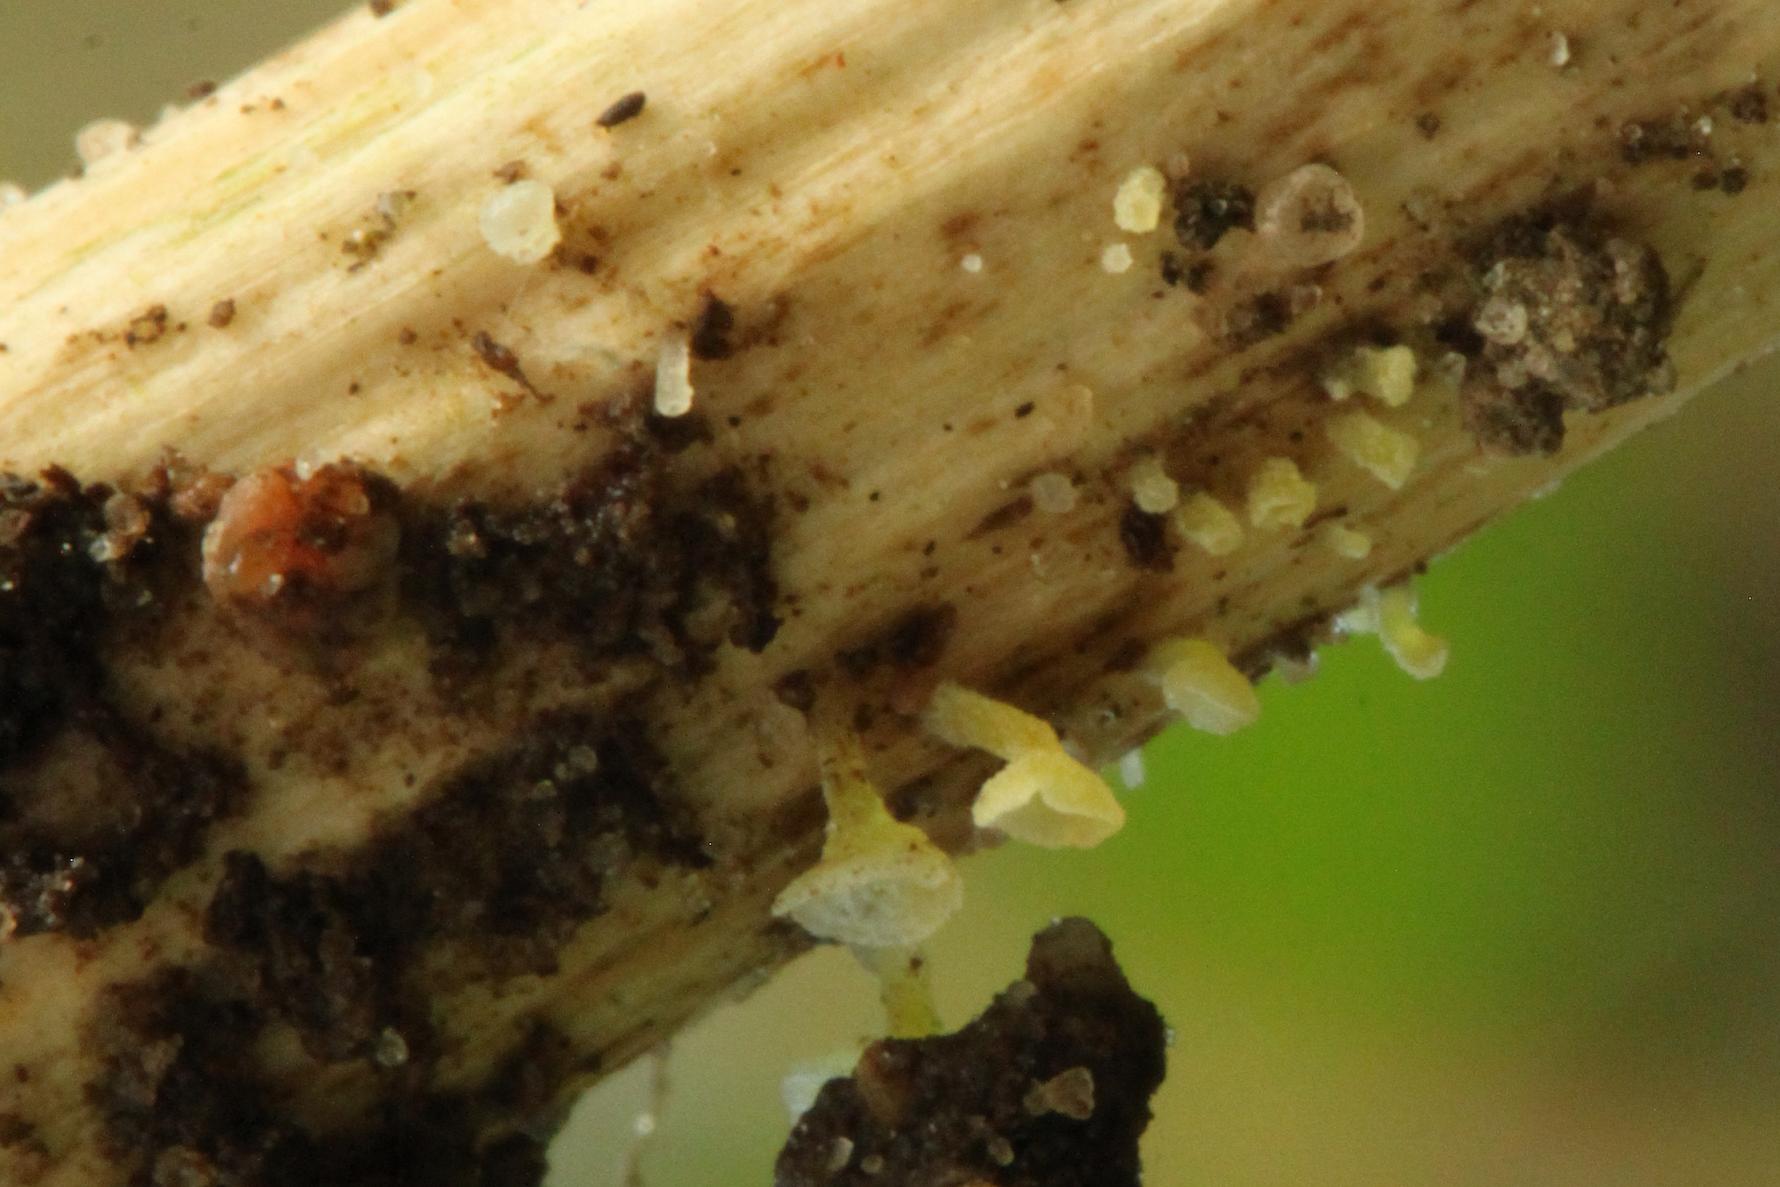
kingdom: Fungi
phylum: Basidiomycota
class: Agaricomycetes
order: Agaricales
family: Marasmiaceae
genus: Calyptella
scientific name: Calyptella campanula
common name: gul nældehue
